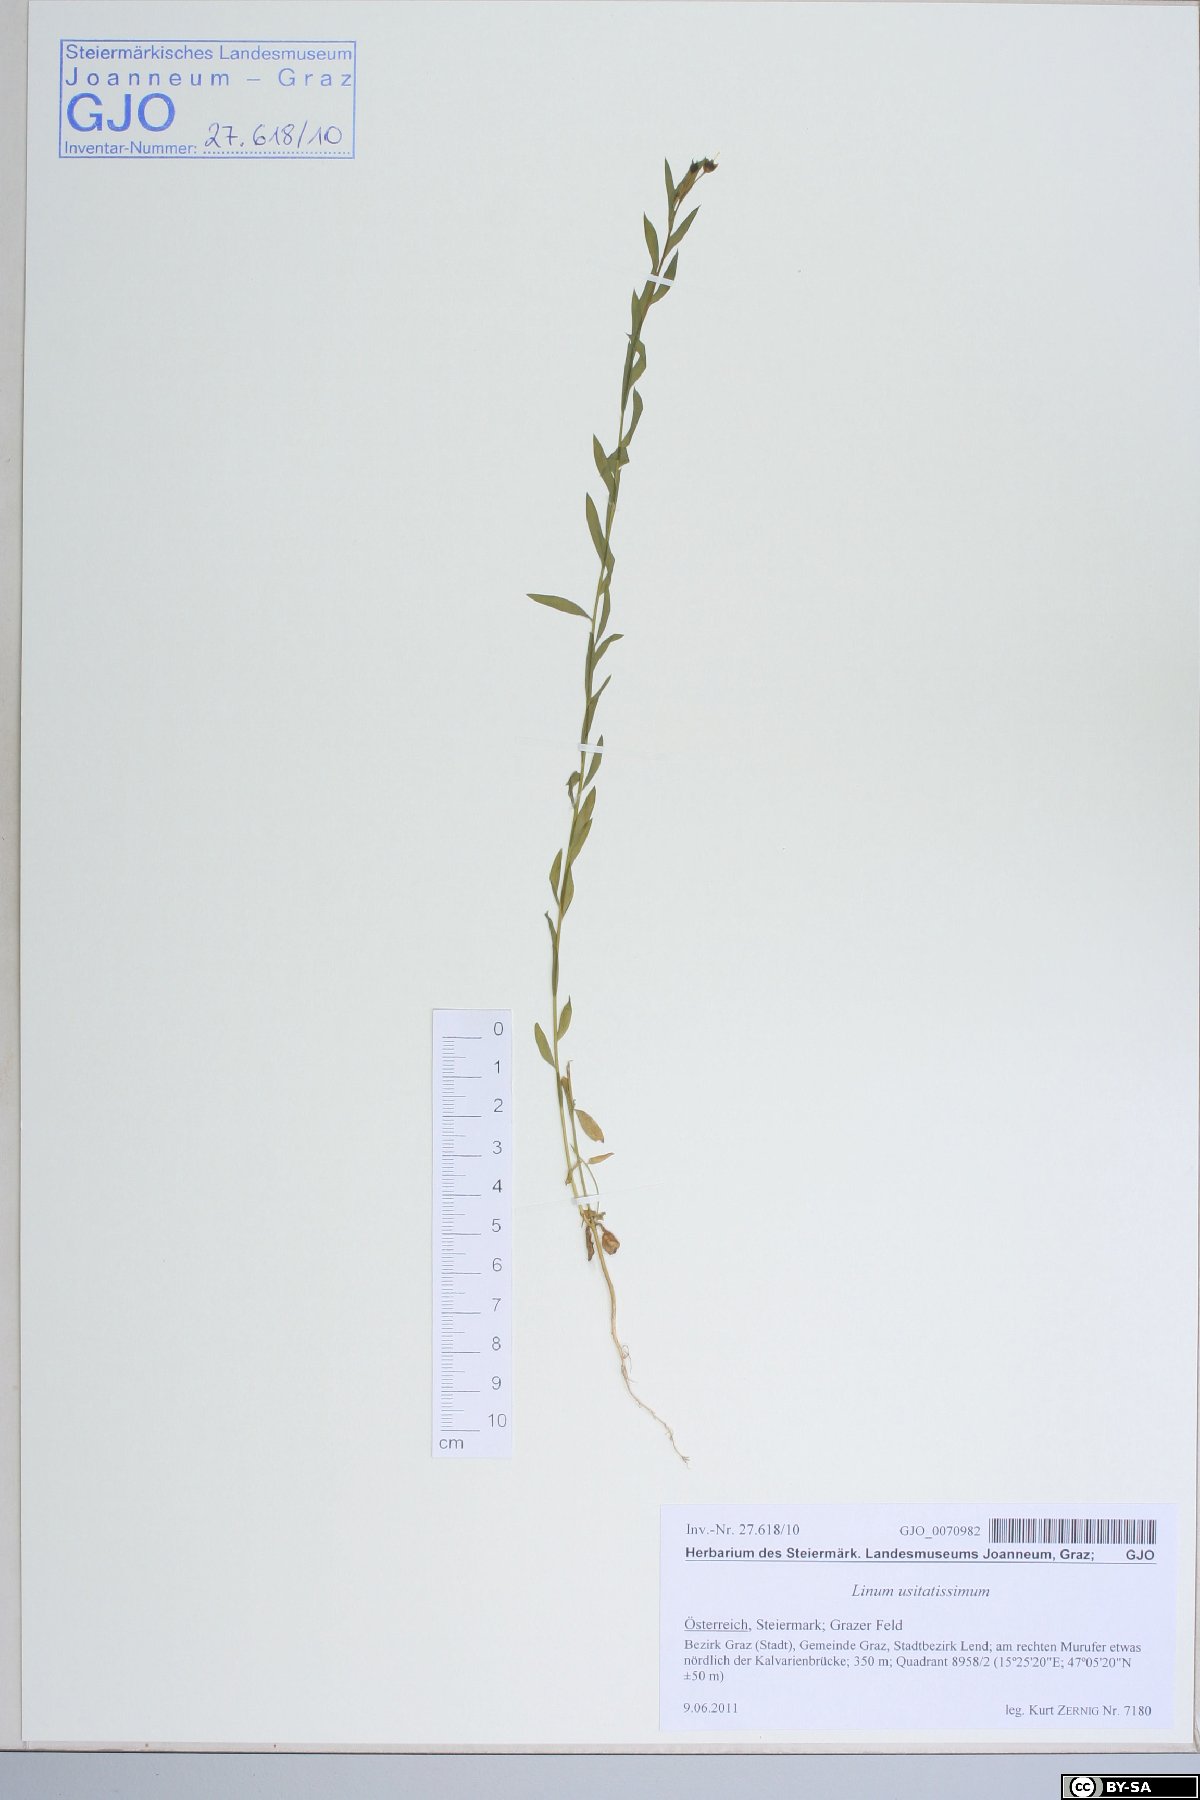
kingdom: Plantae
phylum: Tracheophyta
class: Magnoliopsida
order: Malpighiales
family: Linaceae
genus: Linum
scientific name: Linum usitatissimum
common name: Flax
